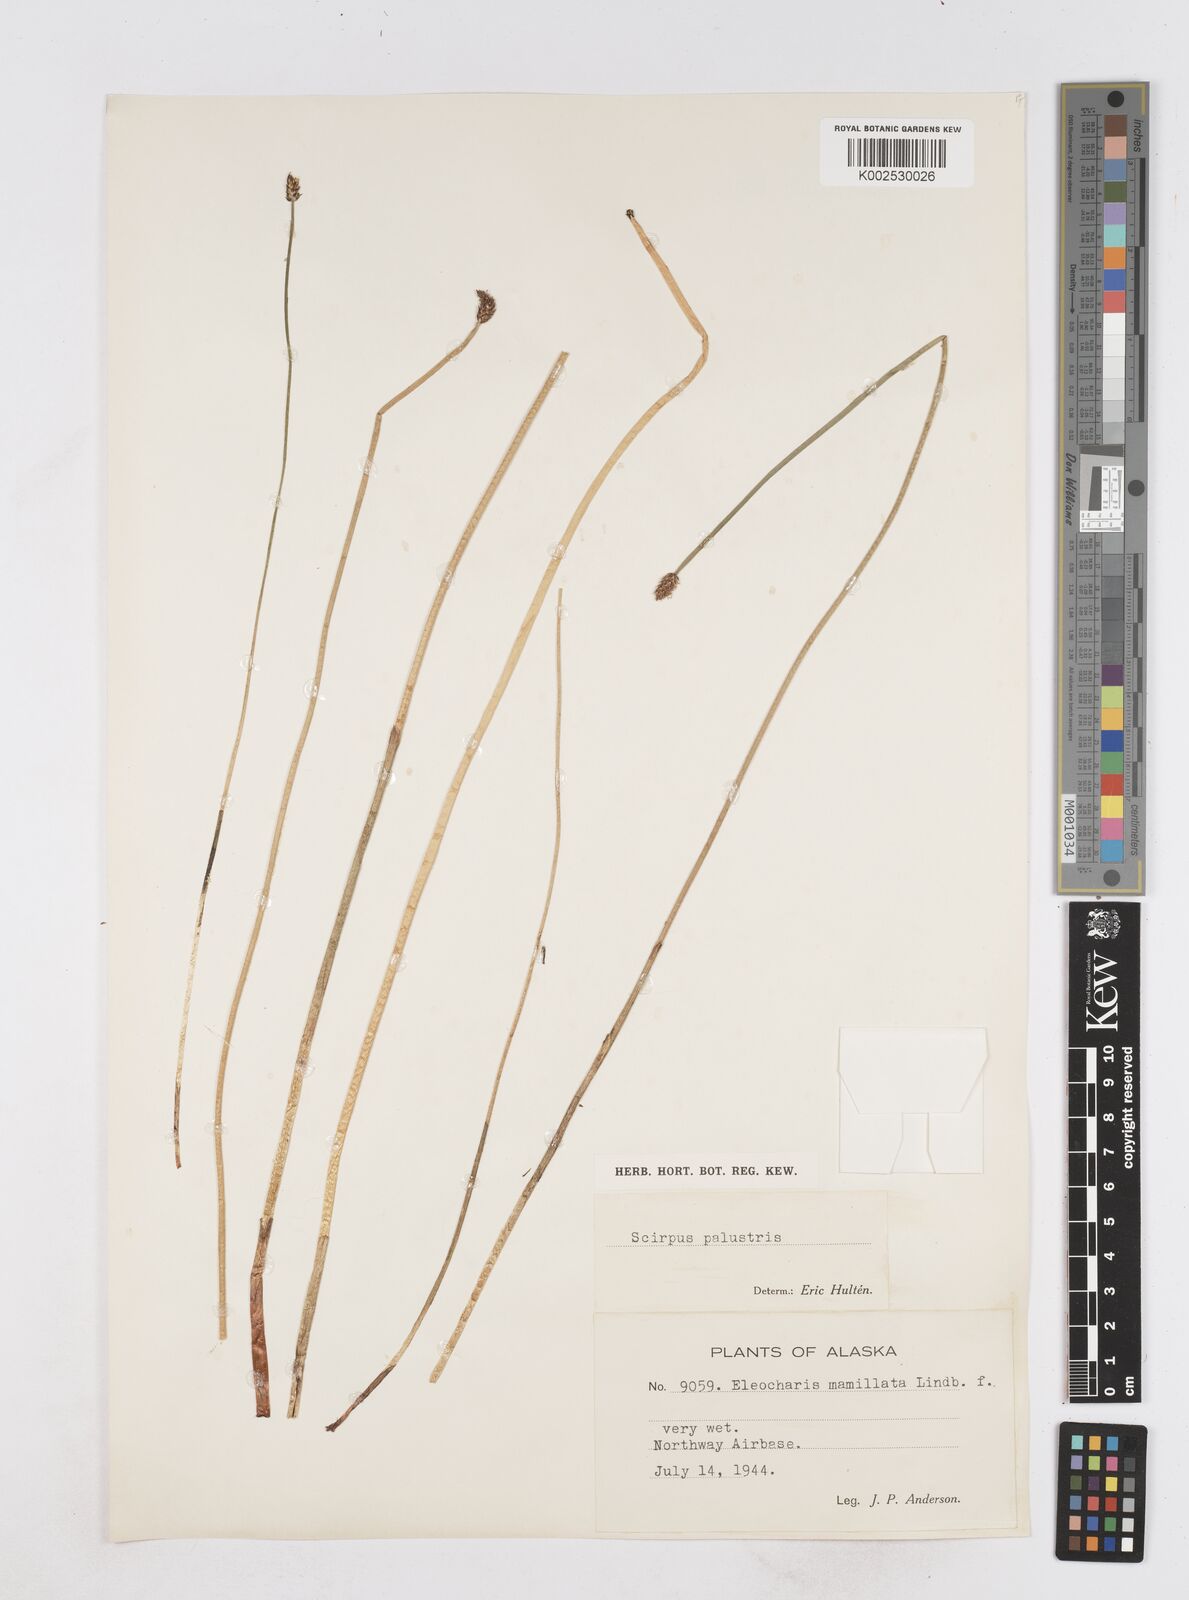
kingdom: Plantae
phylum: Tracheophyta
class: Liliopsida
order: Poales
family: Cyperaceae
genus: Eleocharis
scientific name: Eleocharis palustris
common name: Common spike-rush
